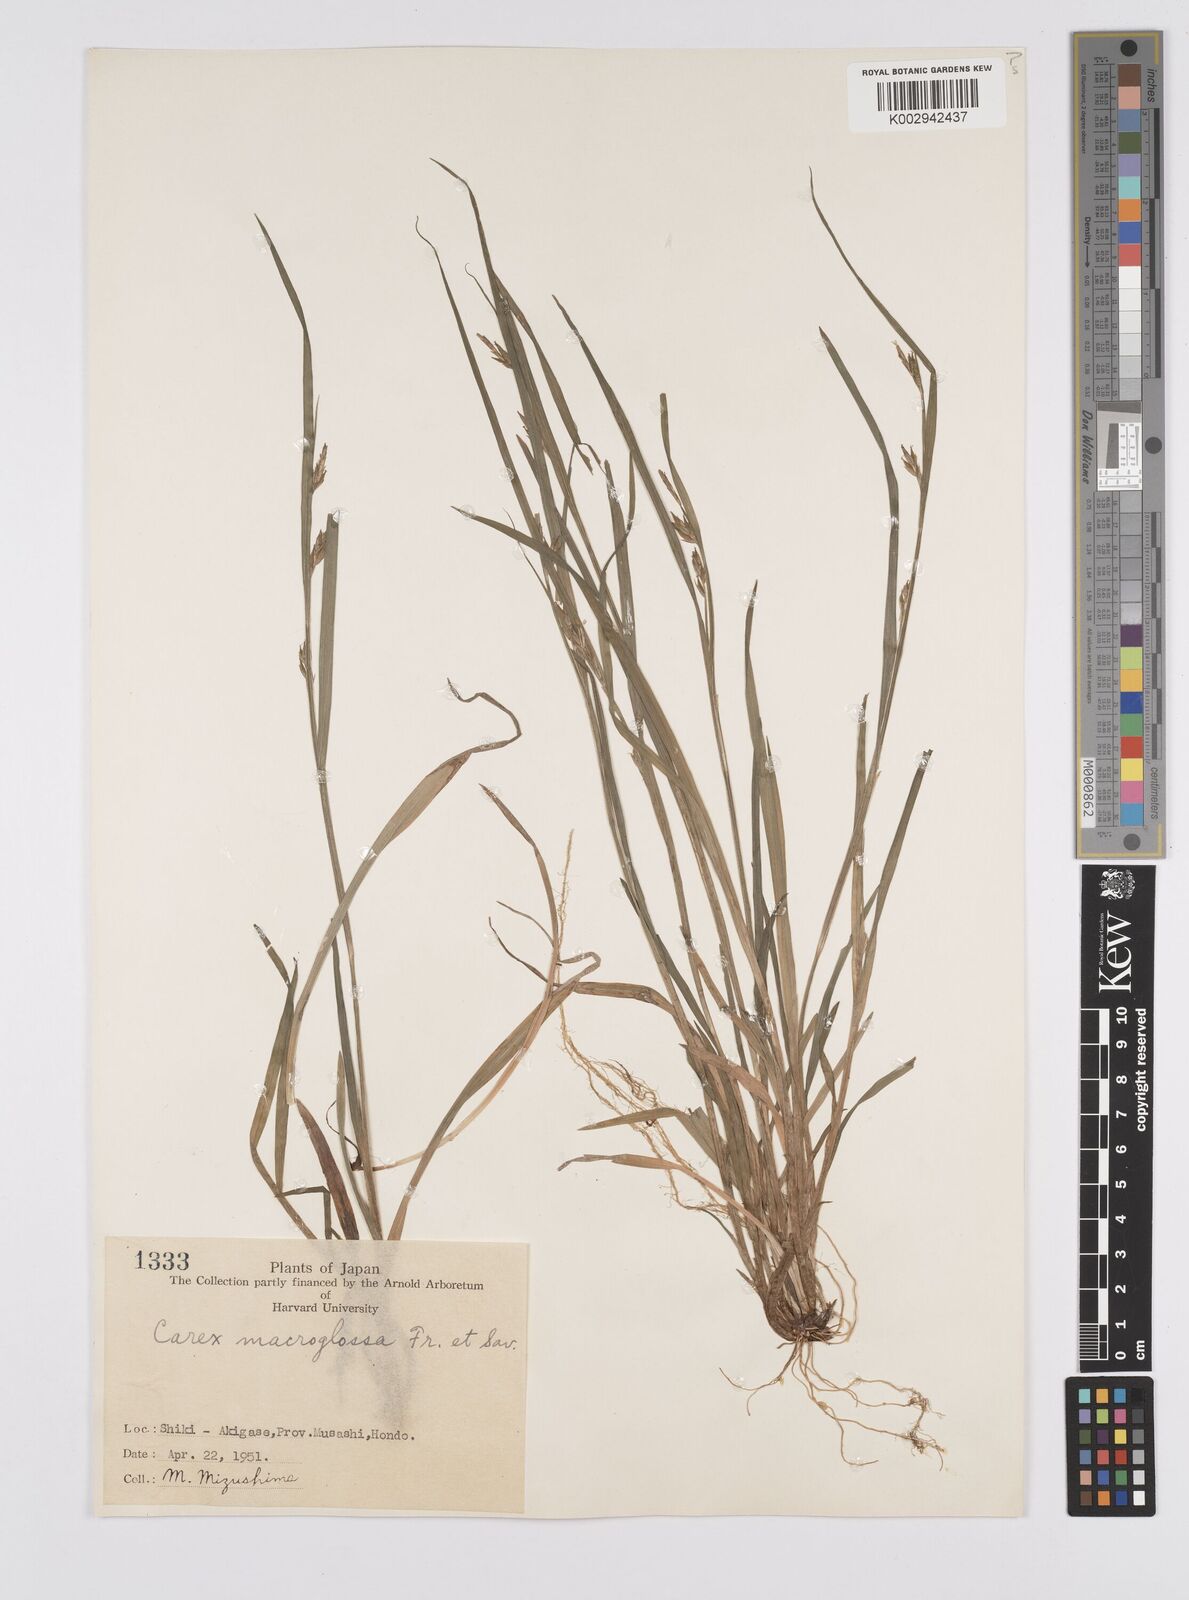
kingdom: Plantae
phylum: Tracheophyta
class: Liliopsida
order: Poales
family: Cyperaceae
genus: Carex
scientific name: Carex jackiana
